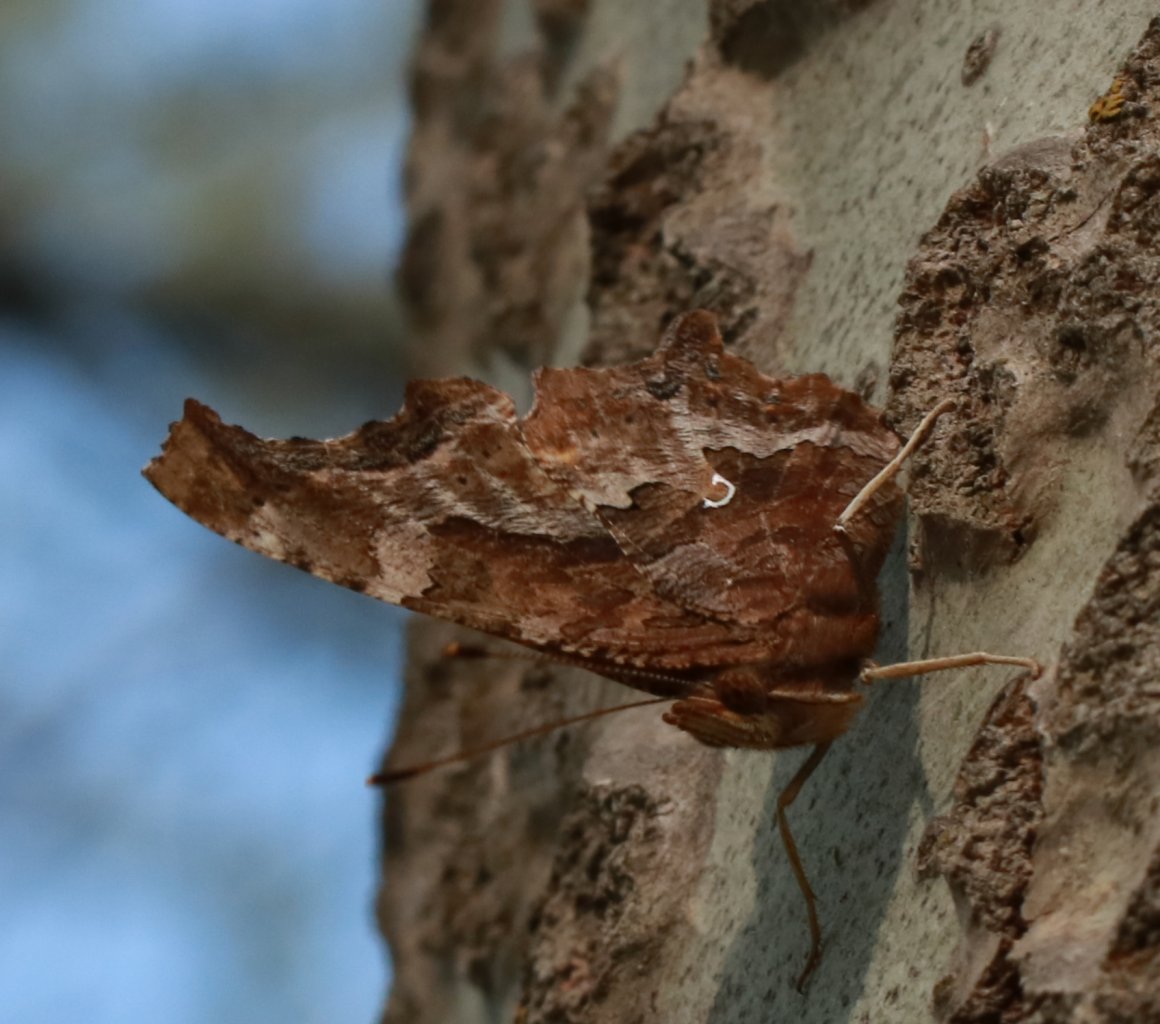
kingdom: Animalia
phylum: Arthropoda
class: Insecta
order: Lepidoptera
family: Nymphalidae
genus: Polygonia
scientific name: Polygonia comma
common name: Eastern Comma
